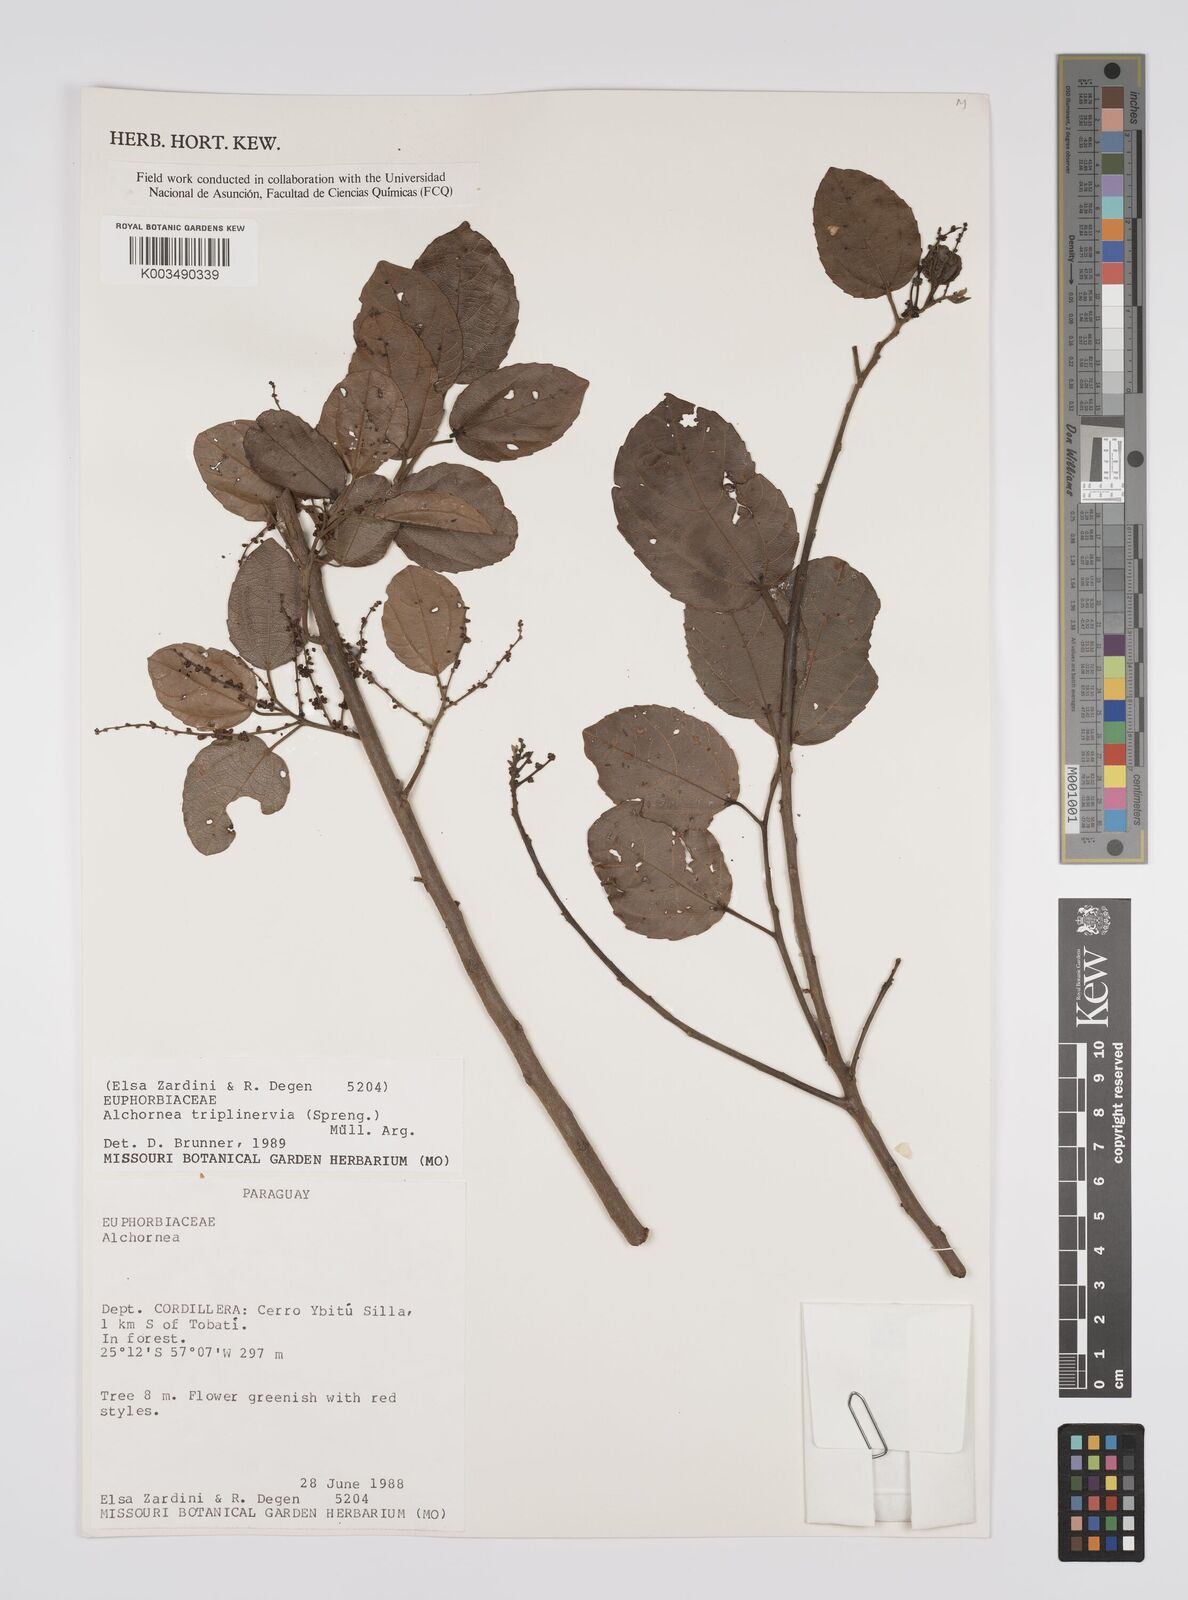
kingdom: Plantae
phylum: Tracheophyta
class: Magnoliopsida
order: Malpighiales
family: Euphorbiaceae
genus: Alchornea
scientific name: Alchornea triplinervia
